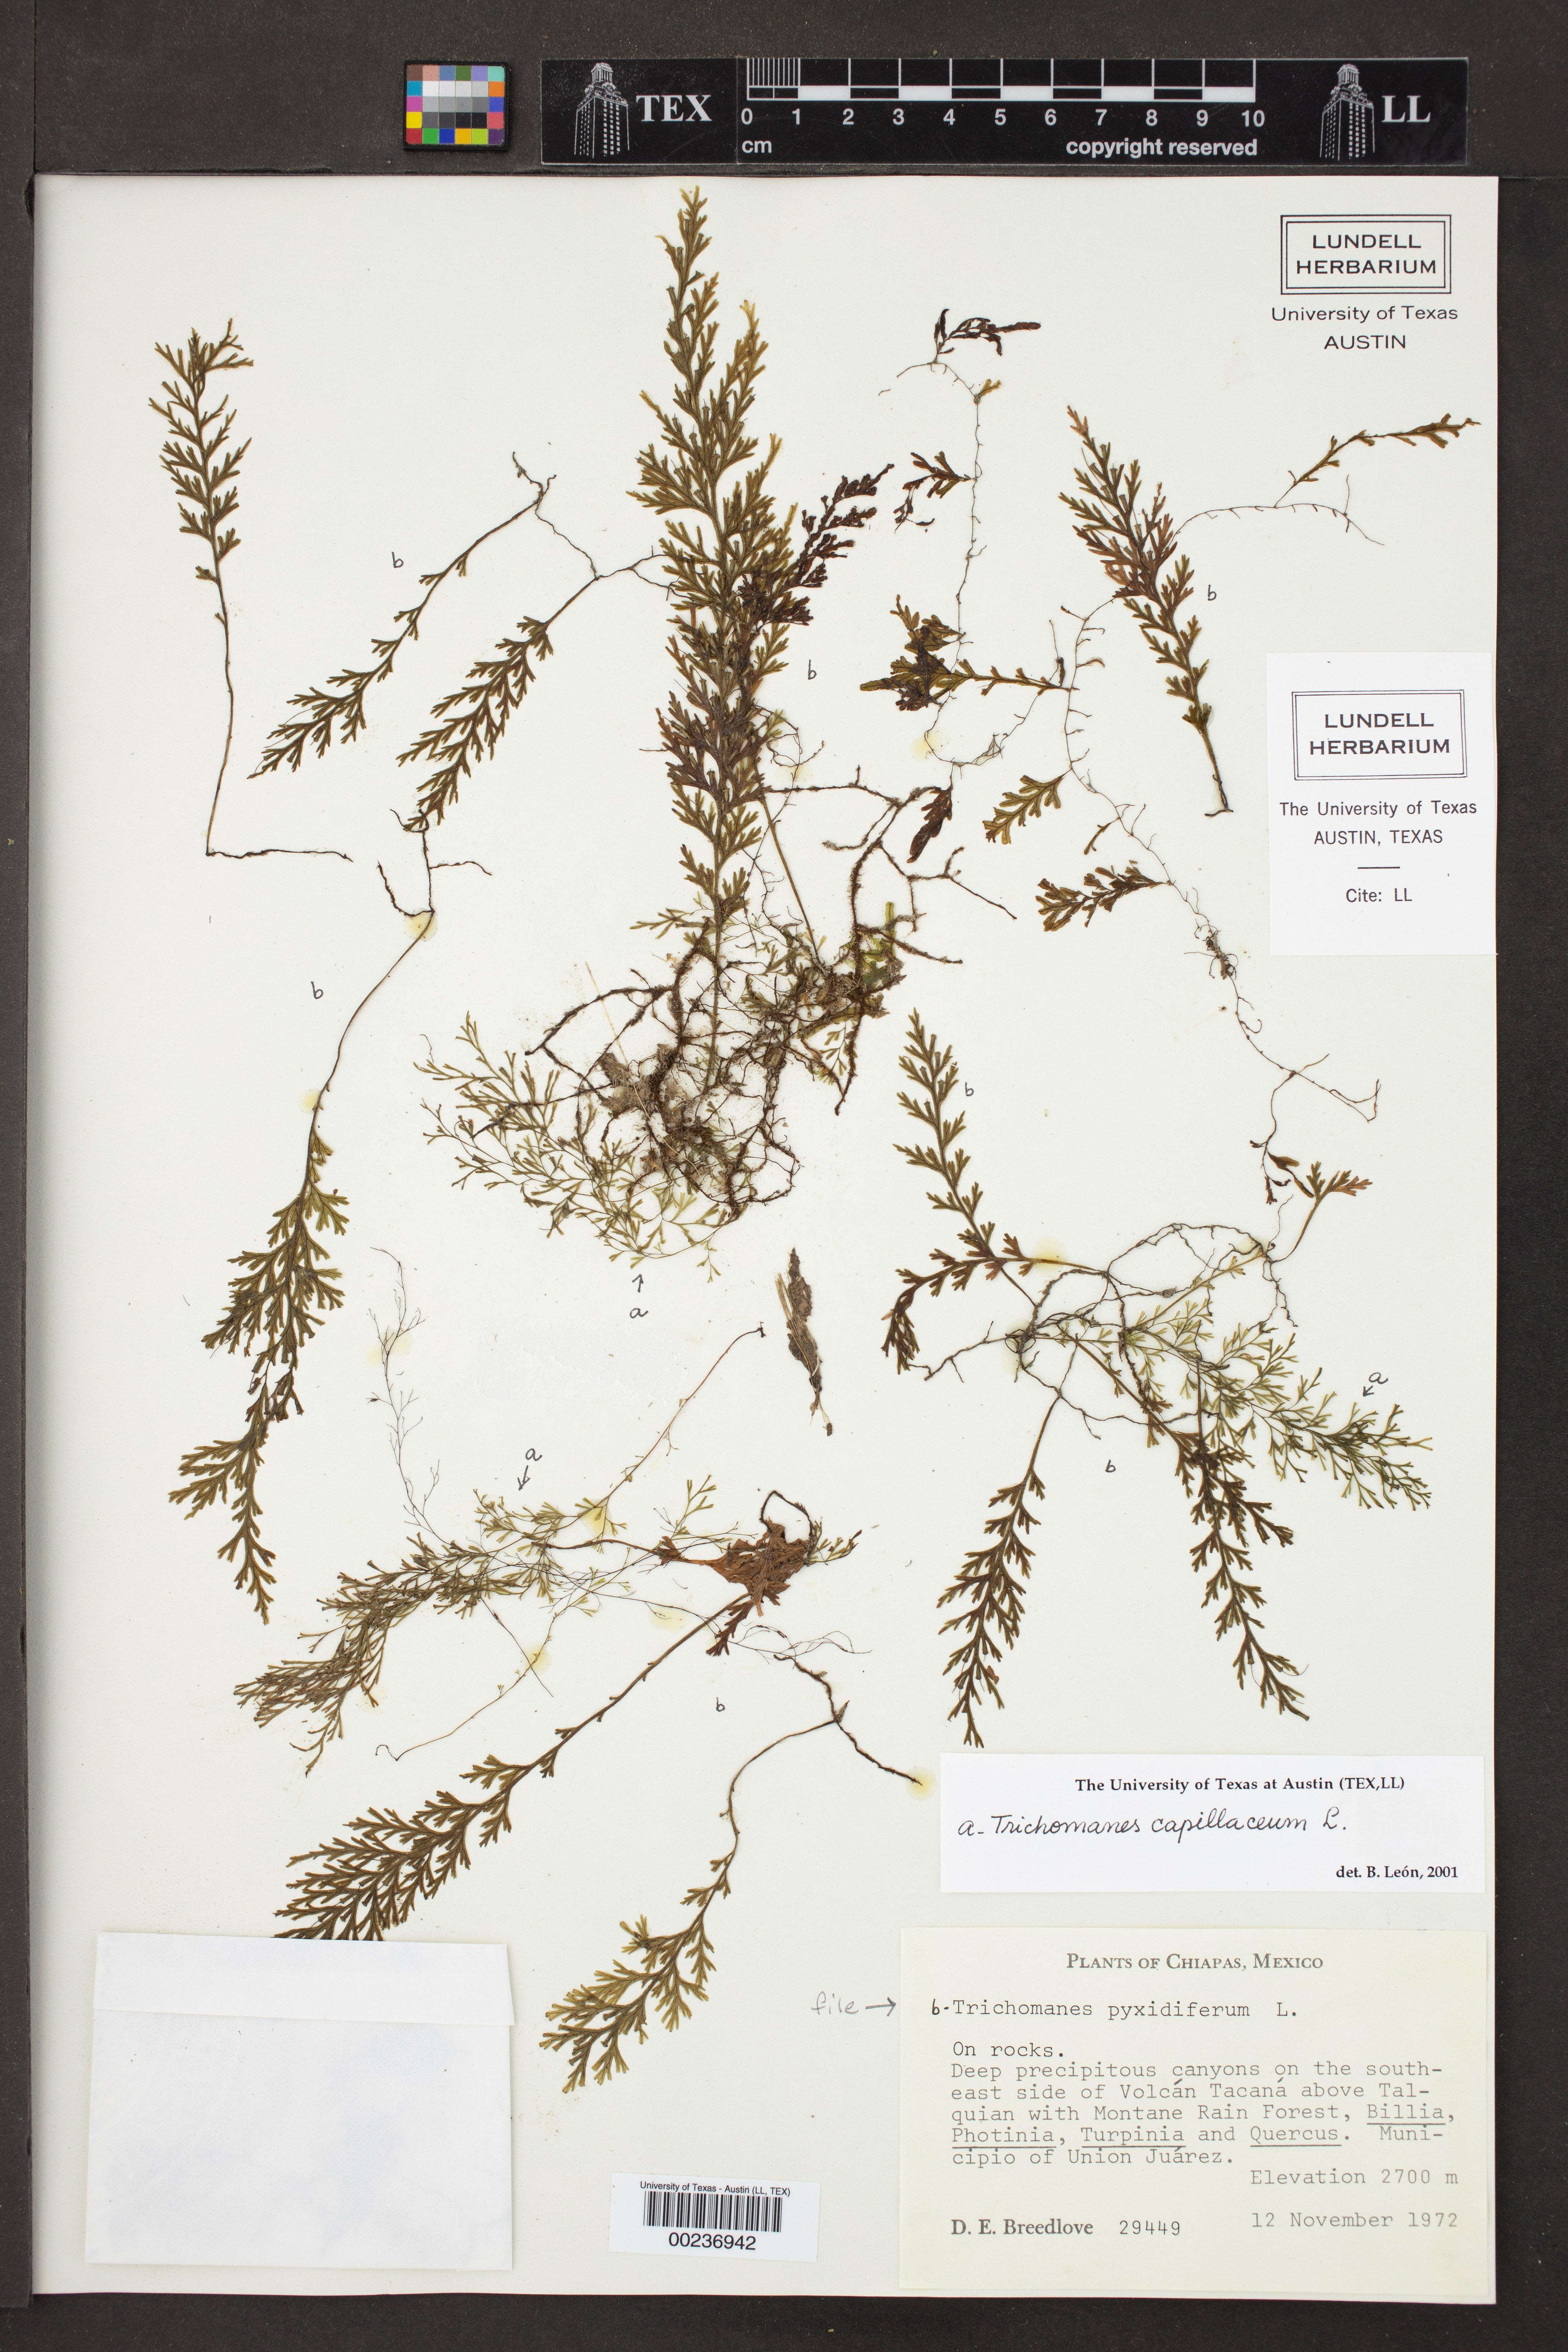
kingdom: Plantae
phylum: Tracheophyta
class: Polypodiopsida
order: Hymenophyllales
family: Hymenophyllaceae
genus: Trichomanes
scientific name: Trichomanes pyxidiferum
